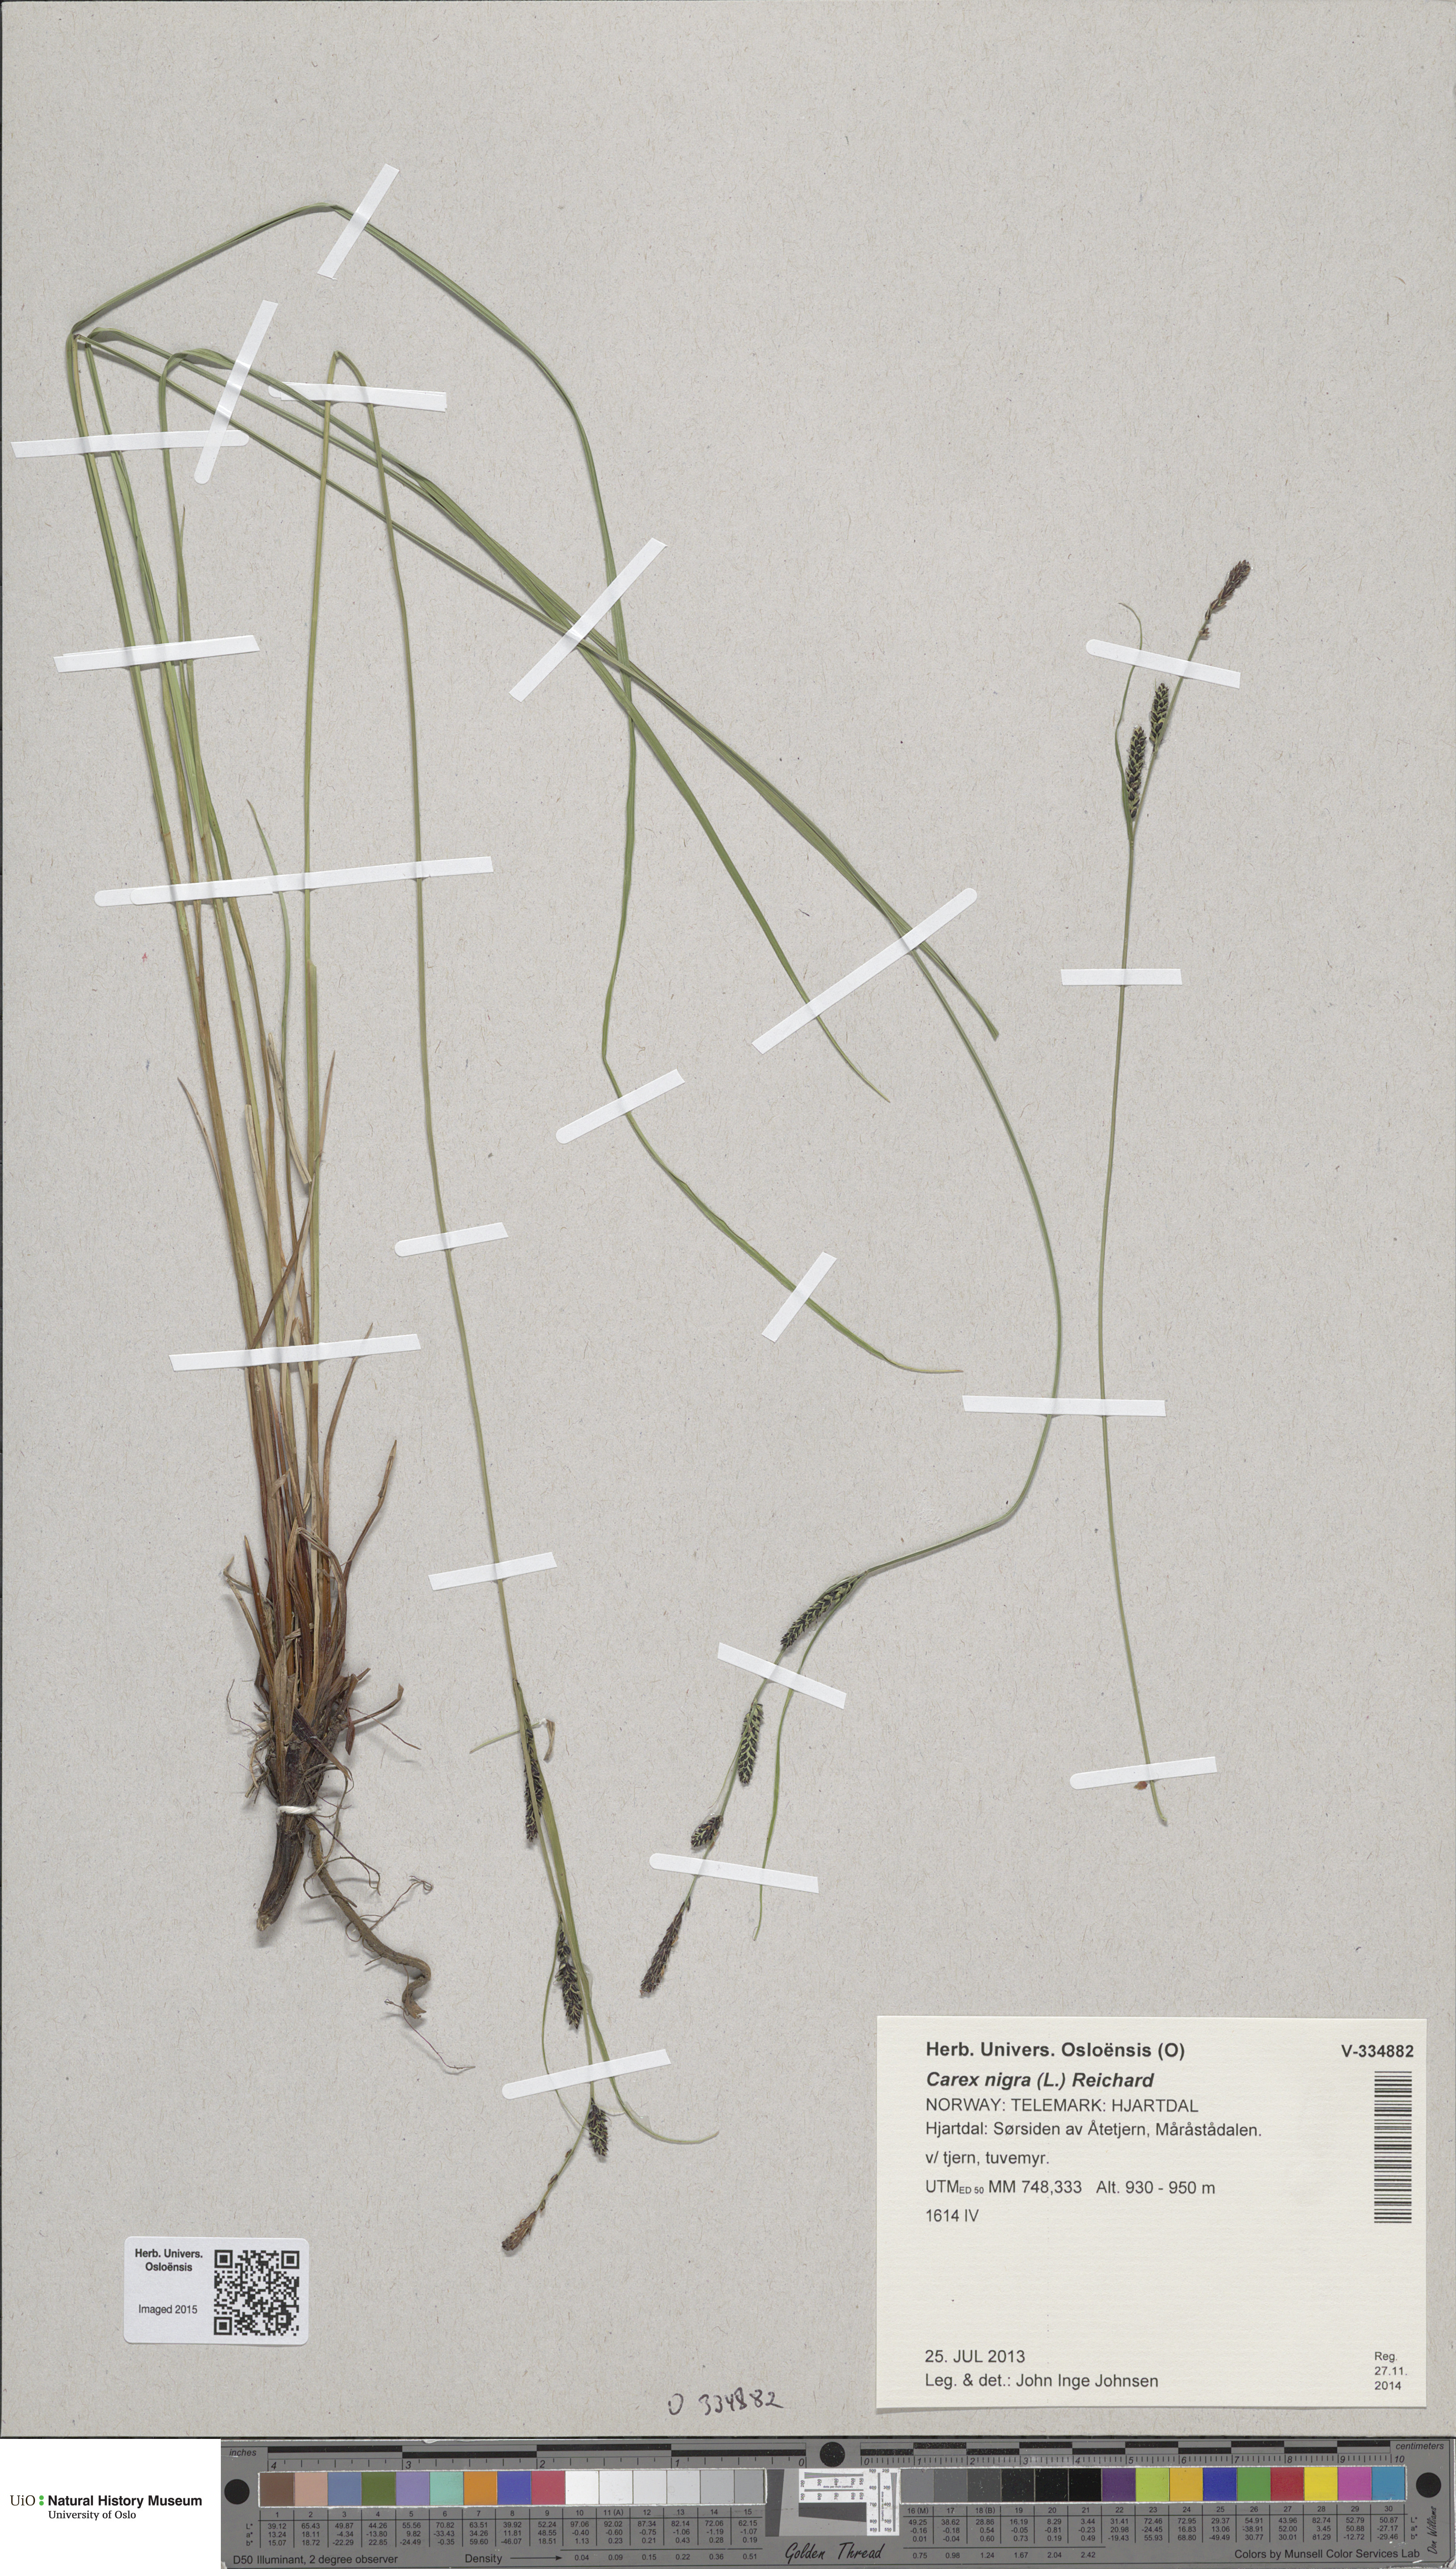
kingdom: Plantae
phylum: Tracheophyta
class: Liliopsida
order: Poales
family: Cyperaceae
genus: Carex
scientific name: Carex nigra
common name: Common sedge
